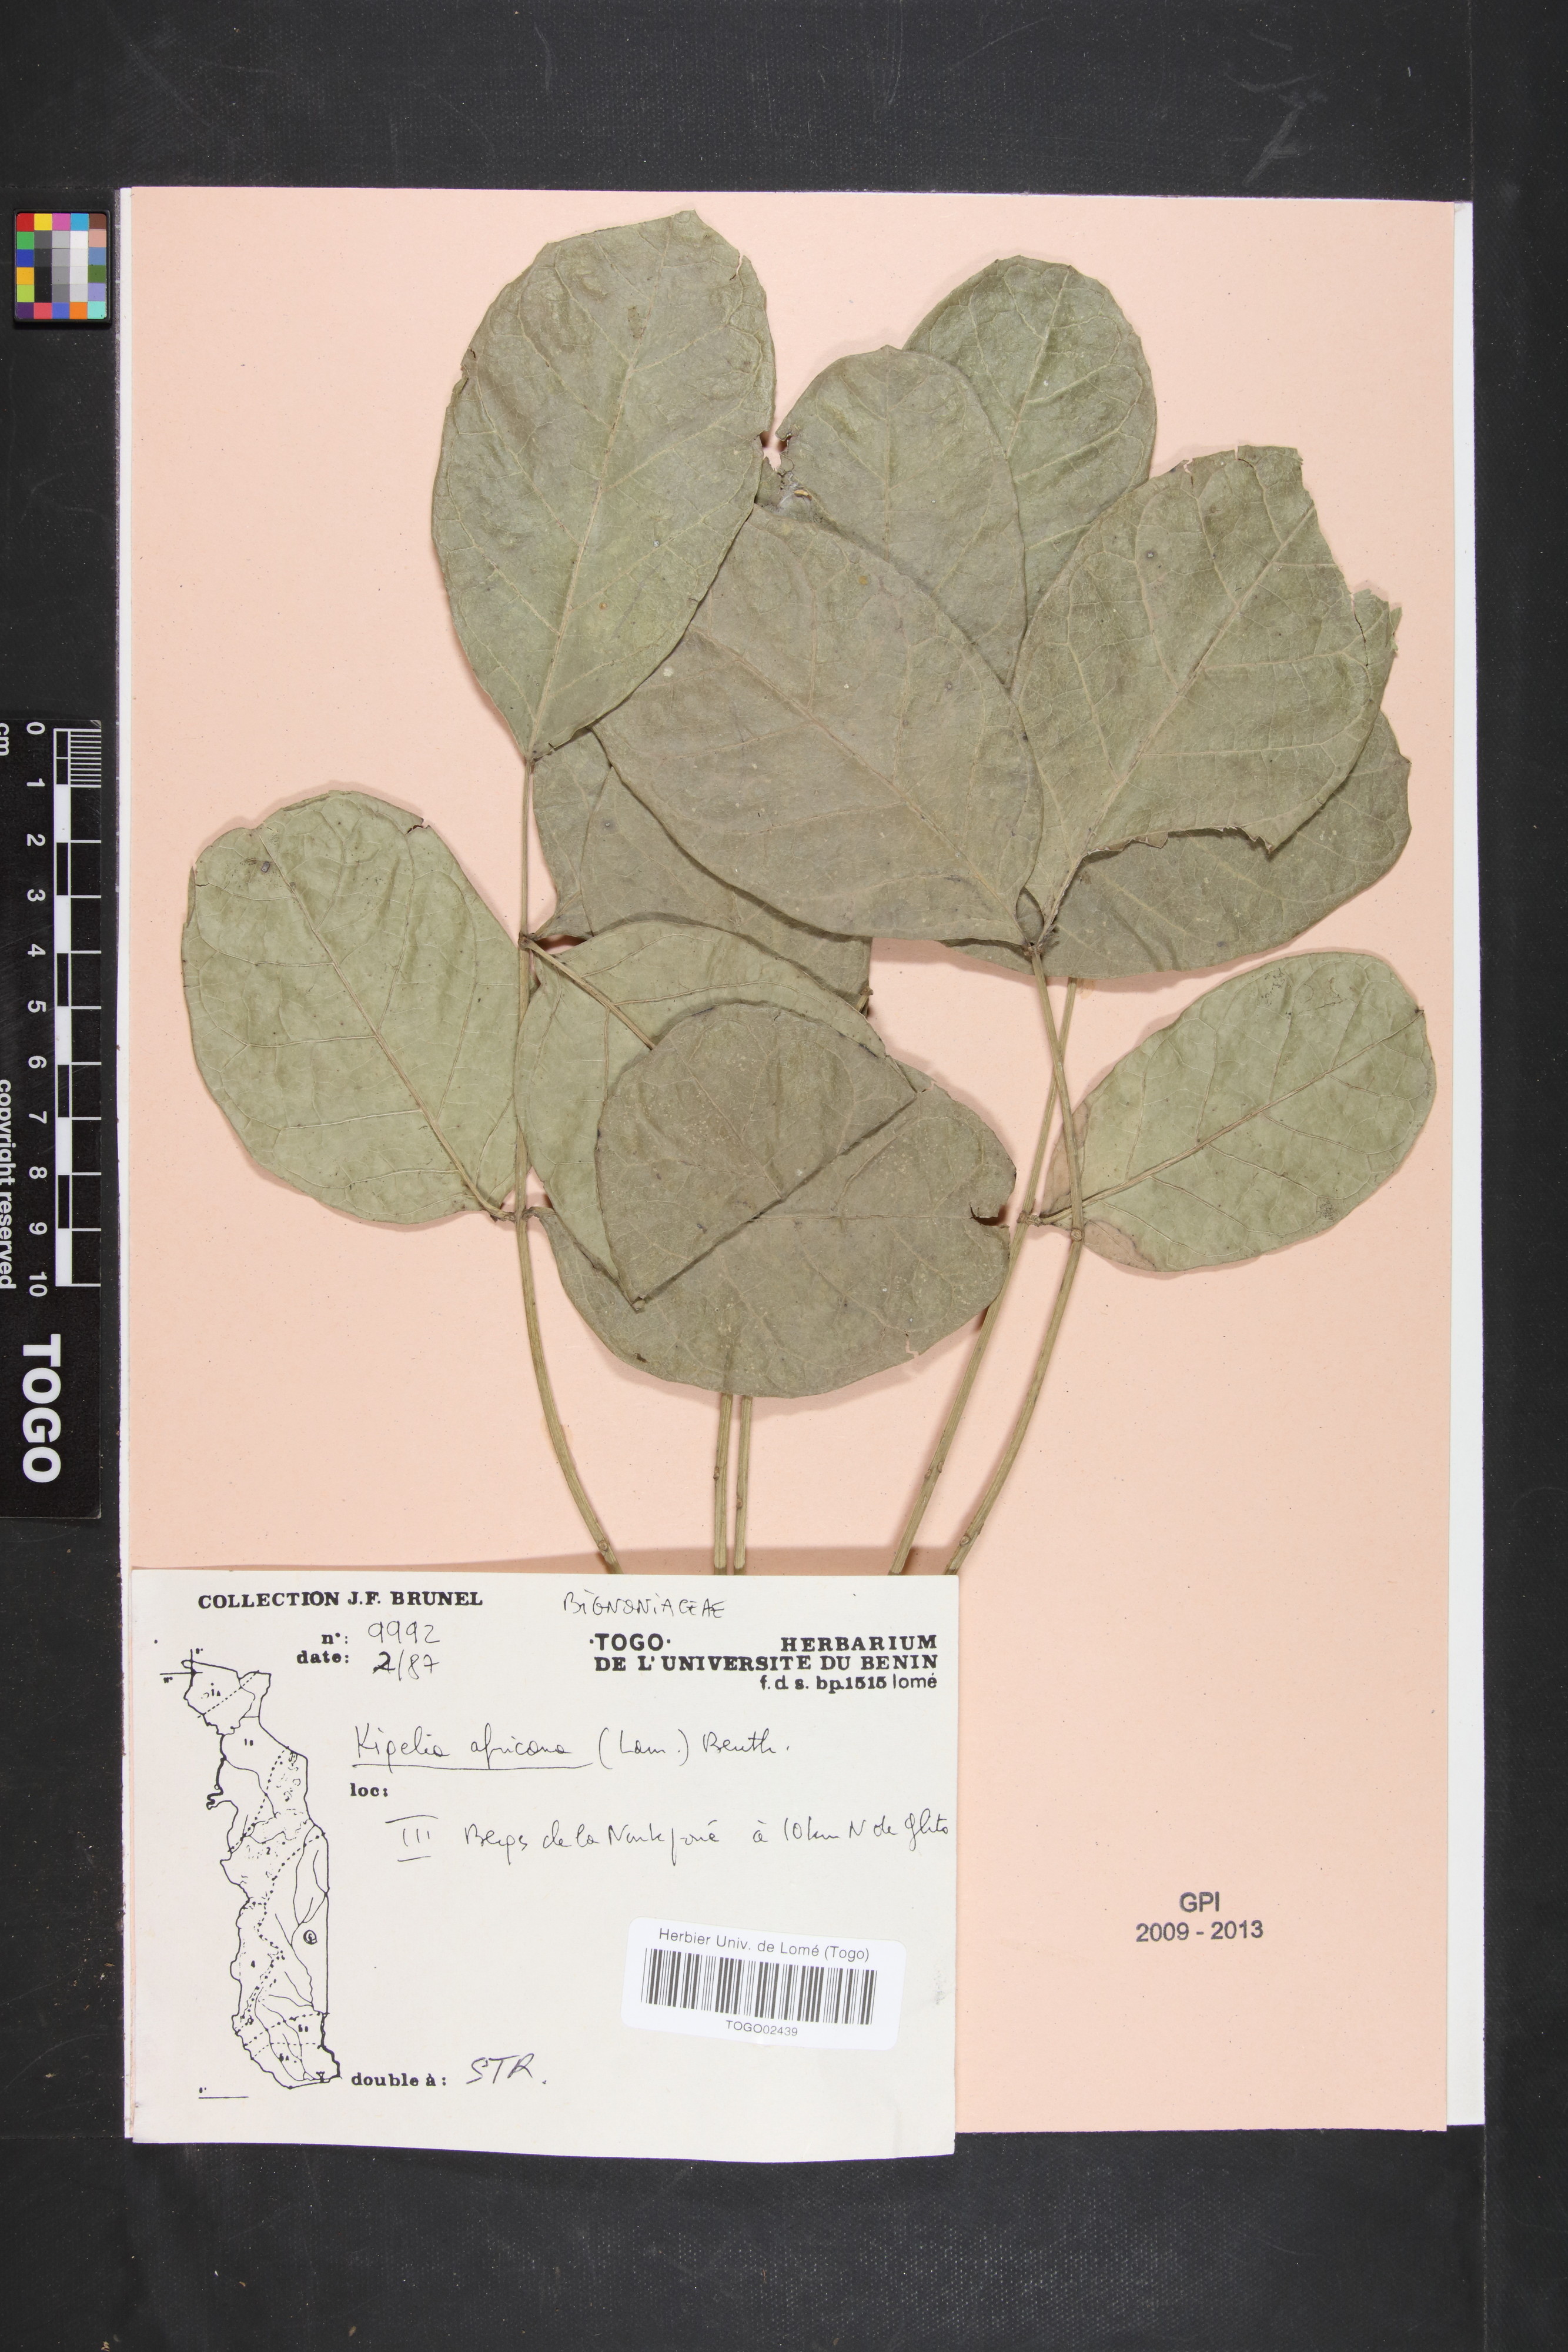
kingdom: Plantae
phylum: Tracheophyta
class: Magnoliopsida
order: Lamiales
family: Bignoniaceae
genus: Kigelia
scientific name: Kigelia africana
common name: Sausage tree
